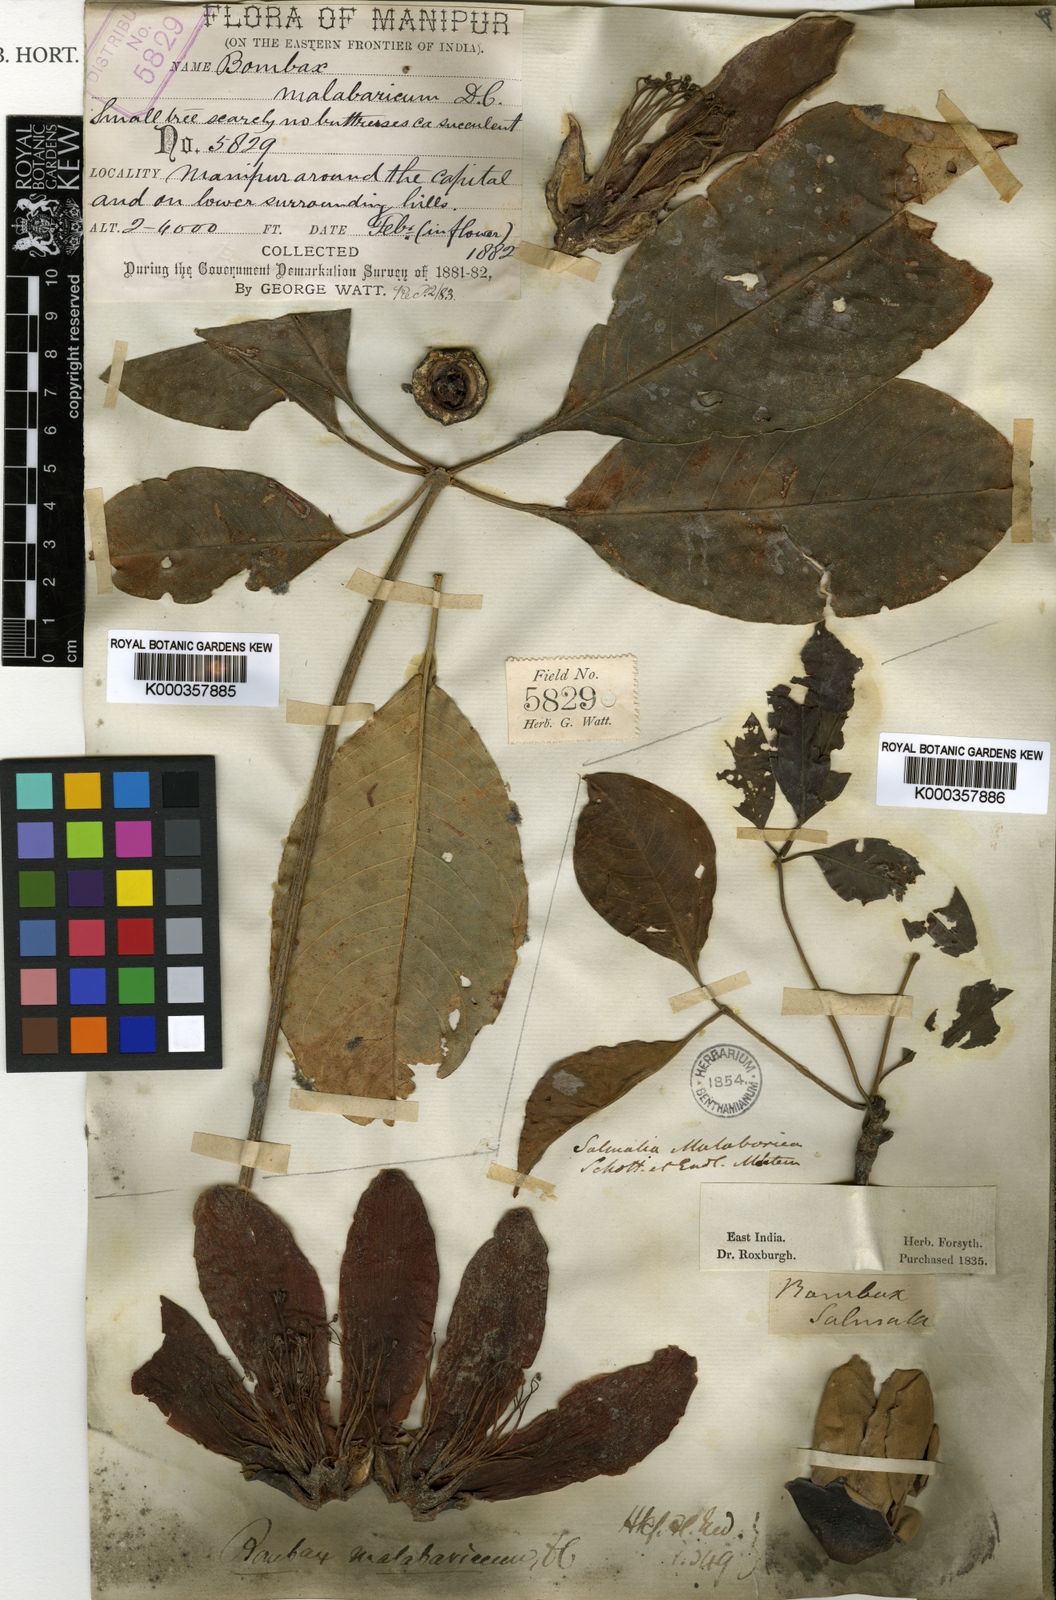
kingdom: Plantae
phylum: Tracheophyta
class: Magnoliopsida
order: Malvales
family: Malvaceae
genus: Bombax
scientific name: Bombax ceiba
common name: Northern-cottonwood
